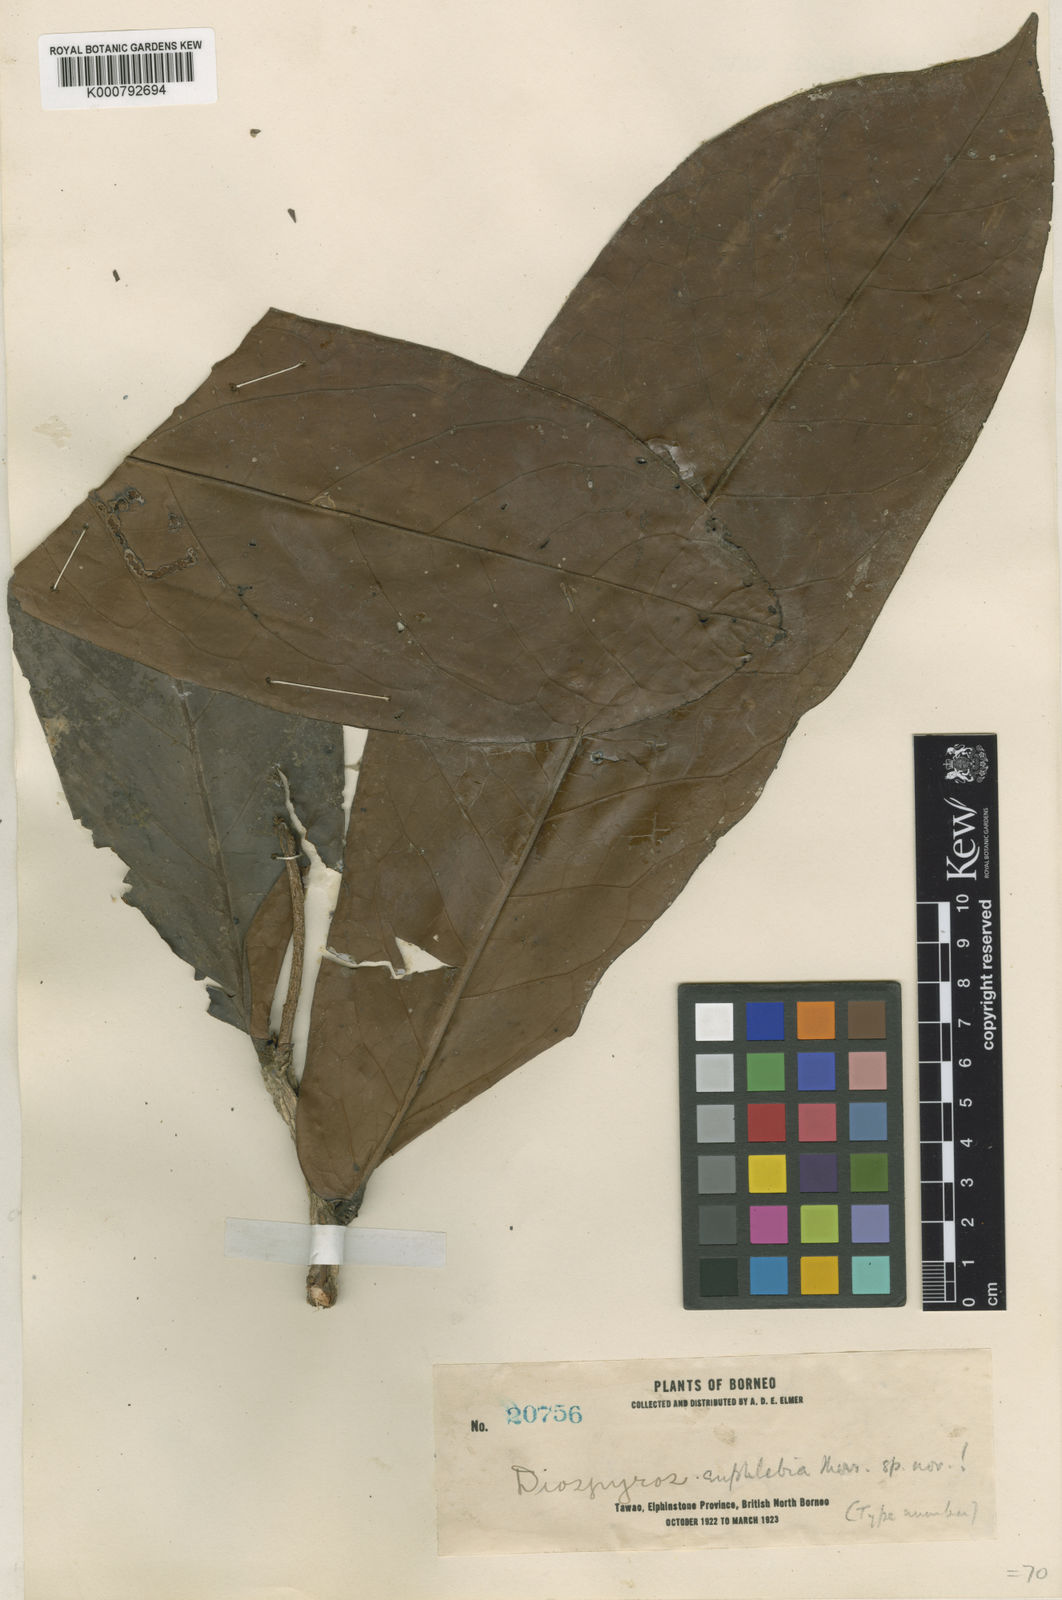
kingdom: Plantae
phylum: Tracheophyta
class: Magnoliopsida
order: Ericales
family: Ebenaceae
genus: Diospyros
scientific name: Diospyros euphlehia
